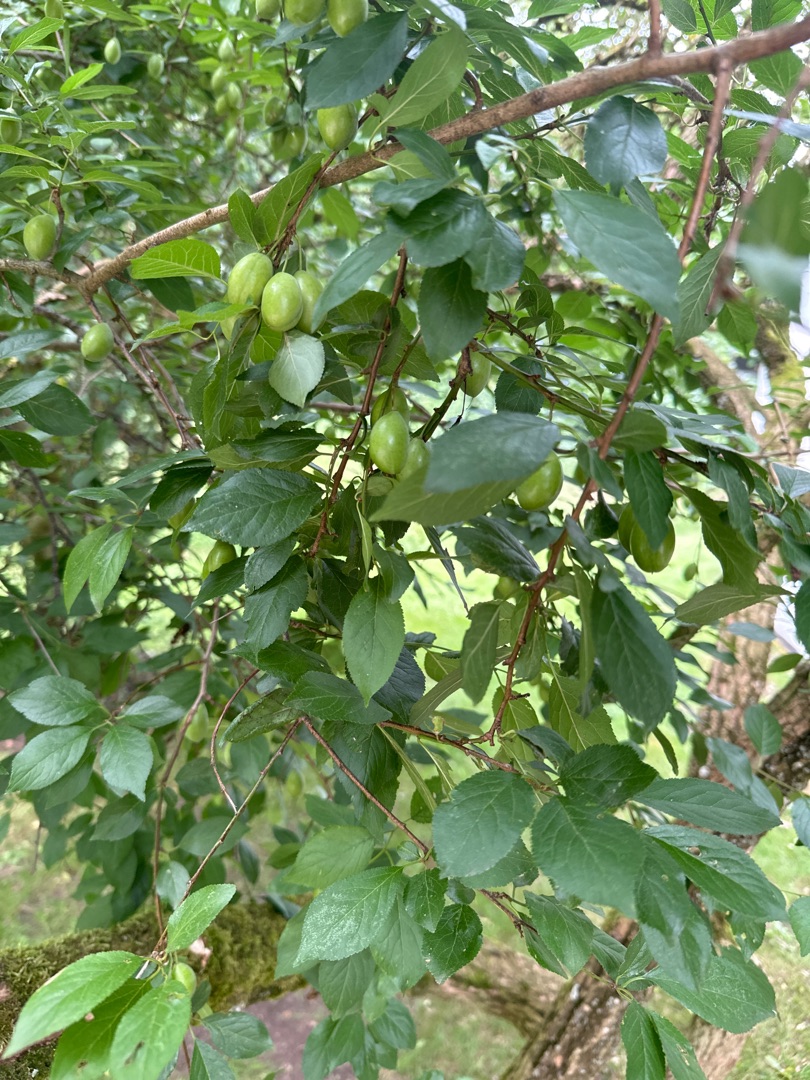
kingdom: Plantae
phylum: Tracheophyta
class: Magnoliopsida
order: Rosales
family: Rosaceae
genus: Prunus
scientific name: Prunus cerasifera
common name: Mirabel
